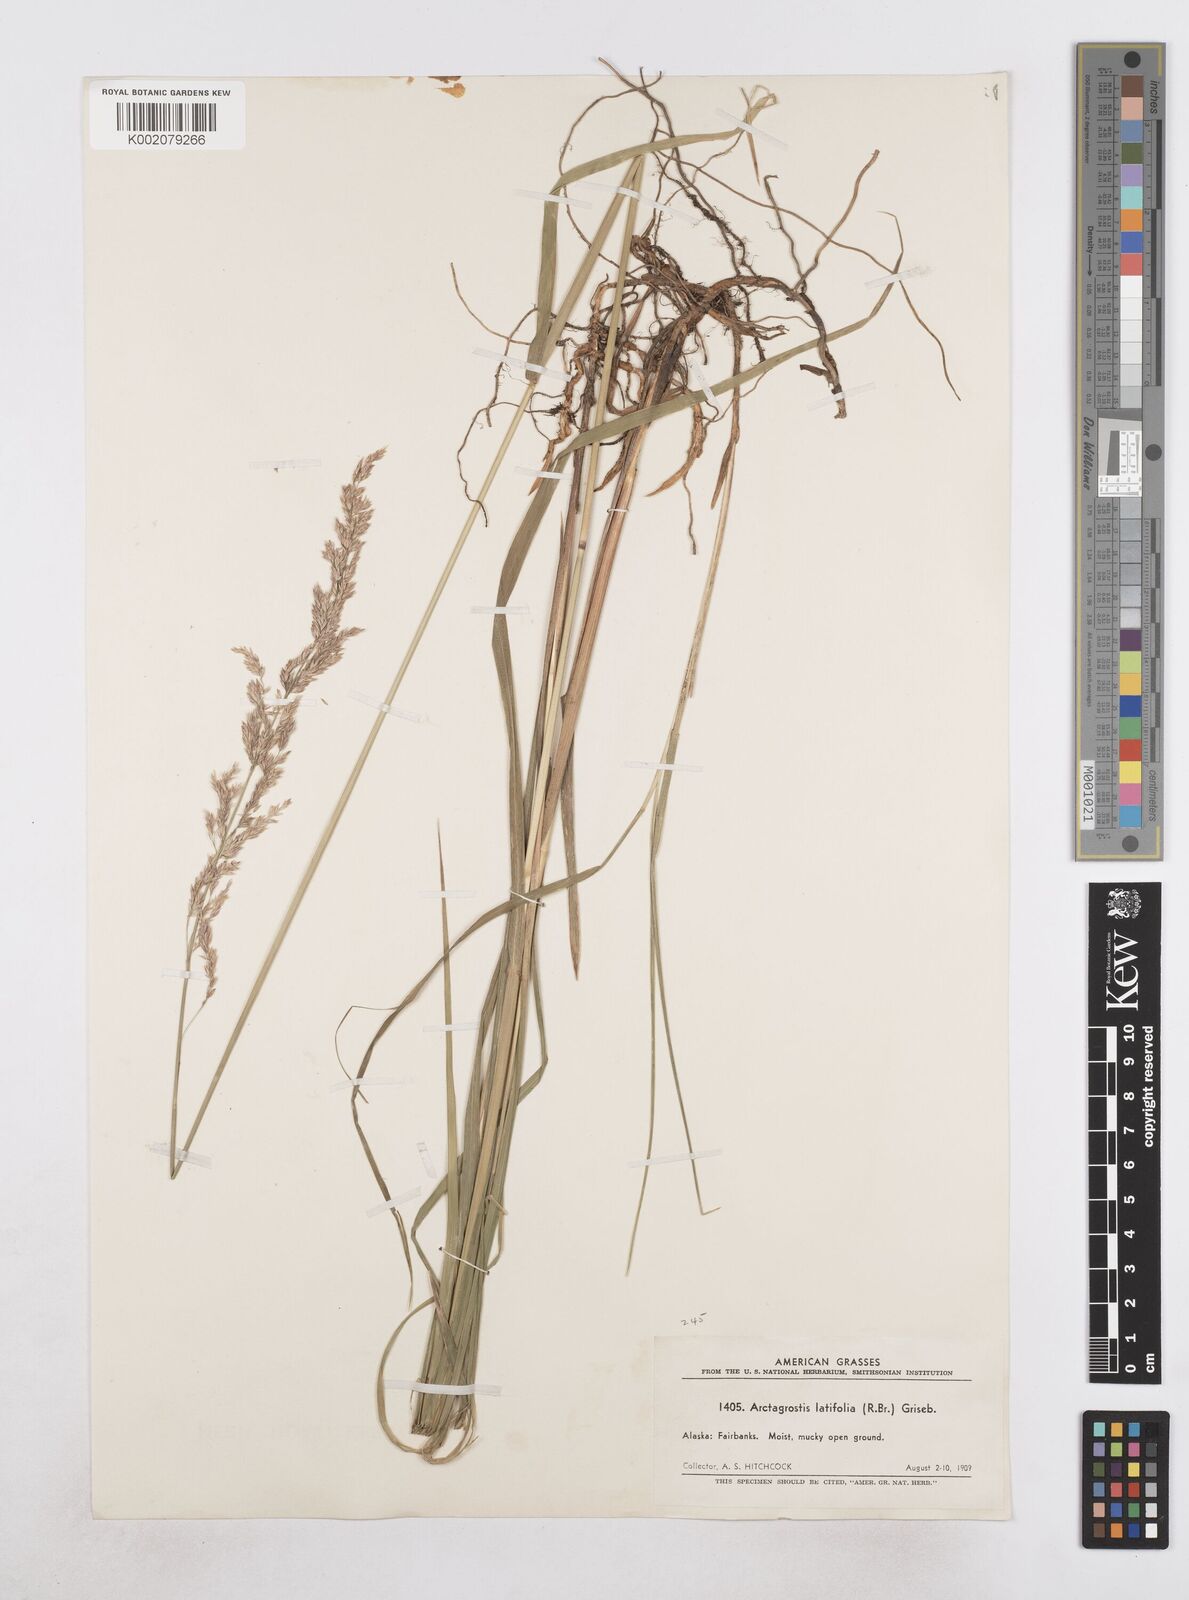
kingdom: Plantae
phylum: Tracheophyta
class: Liliopsida
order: Poales
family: Poaceae
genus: Arctagrostis
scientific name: Arctagrostis latifolia
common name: Arctic grass
